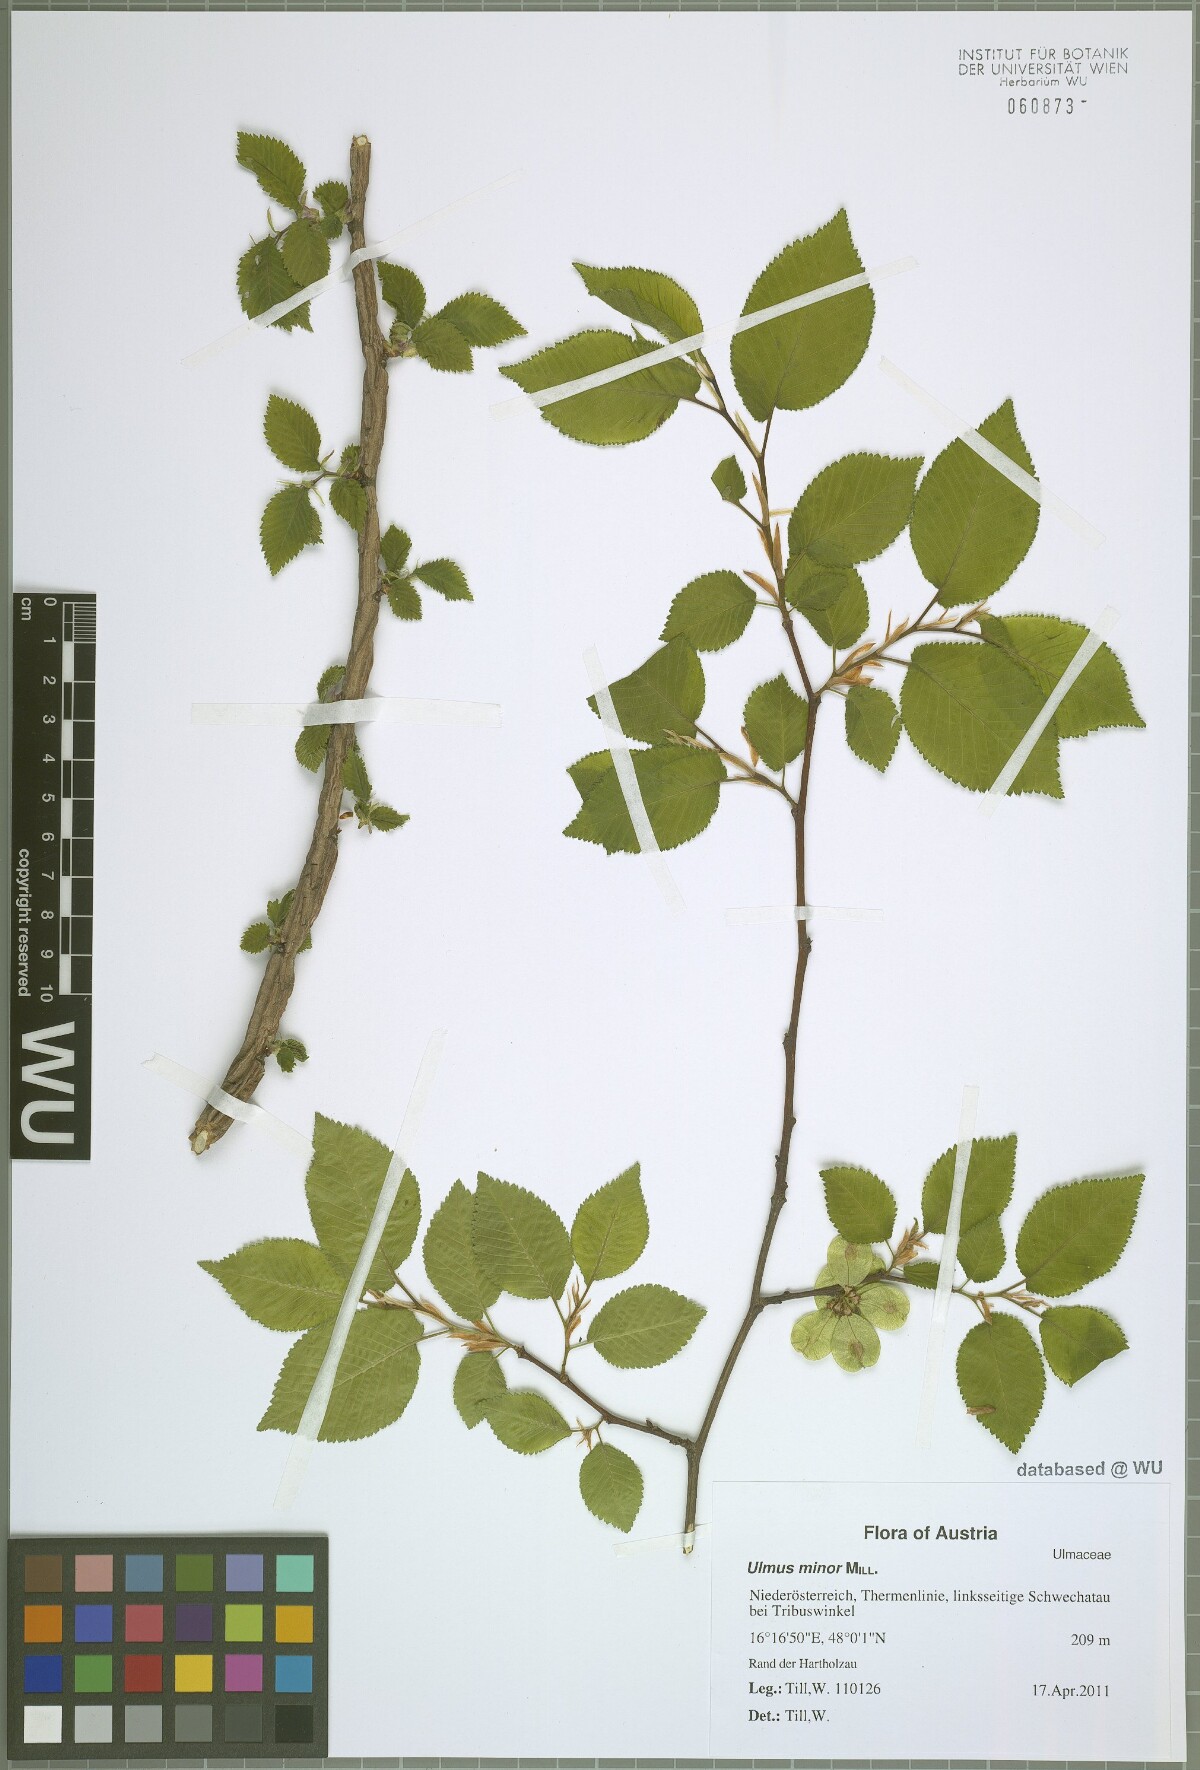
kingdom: Plantae
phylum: Tracheophyta
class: Magnoliopsida
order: Rosales
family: Ulmaceae
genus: Ulmus
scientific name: Ulmus minor
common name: Small-leaved elm
